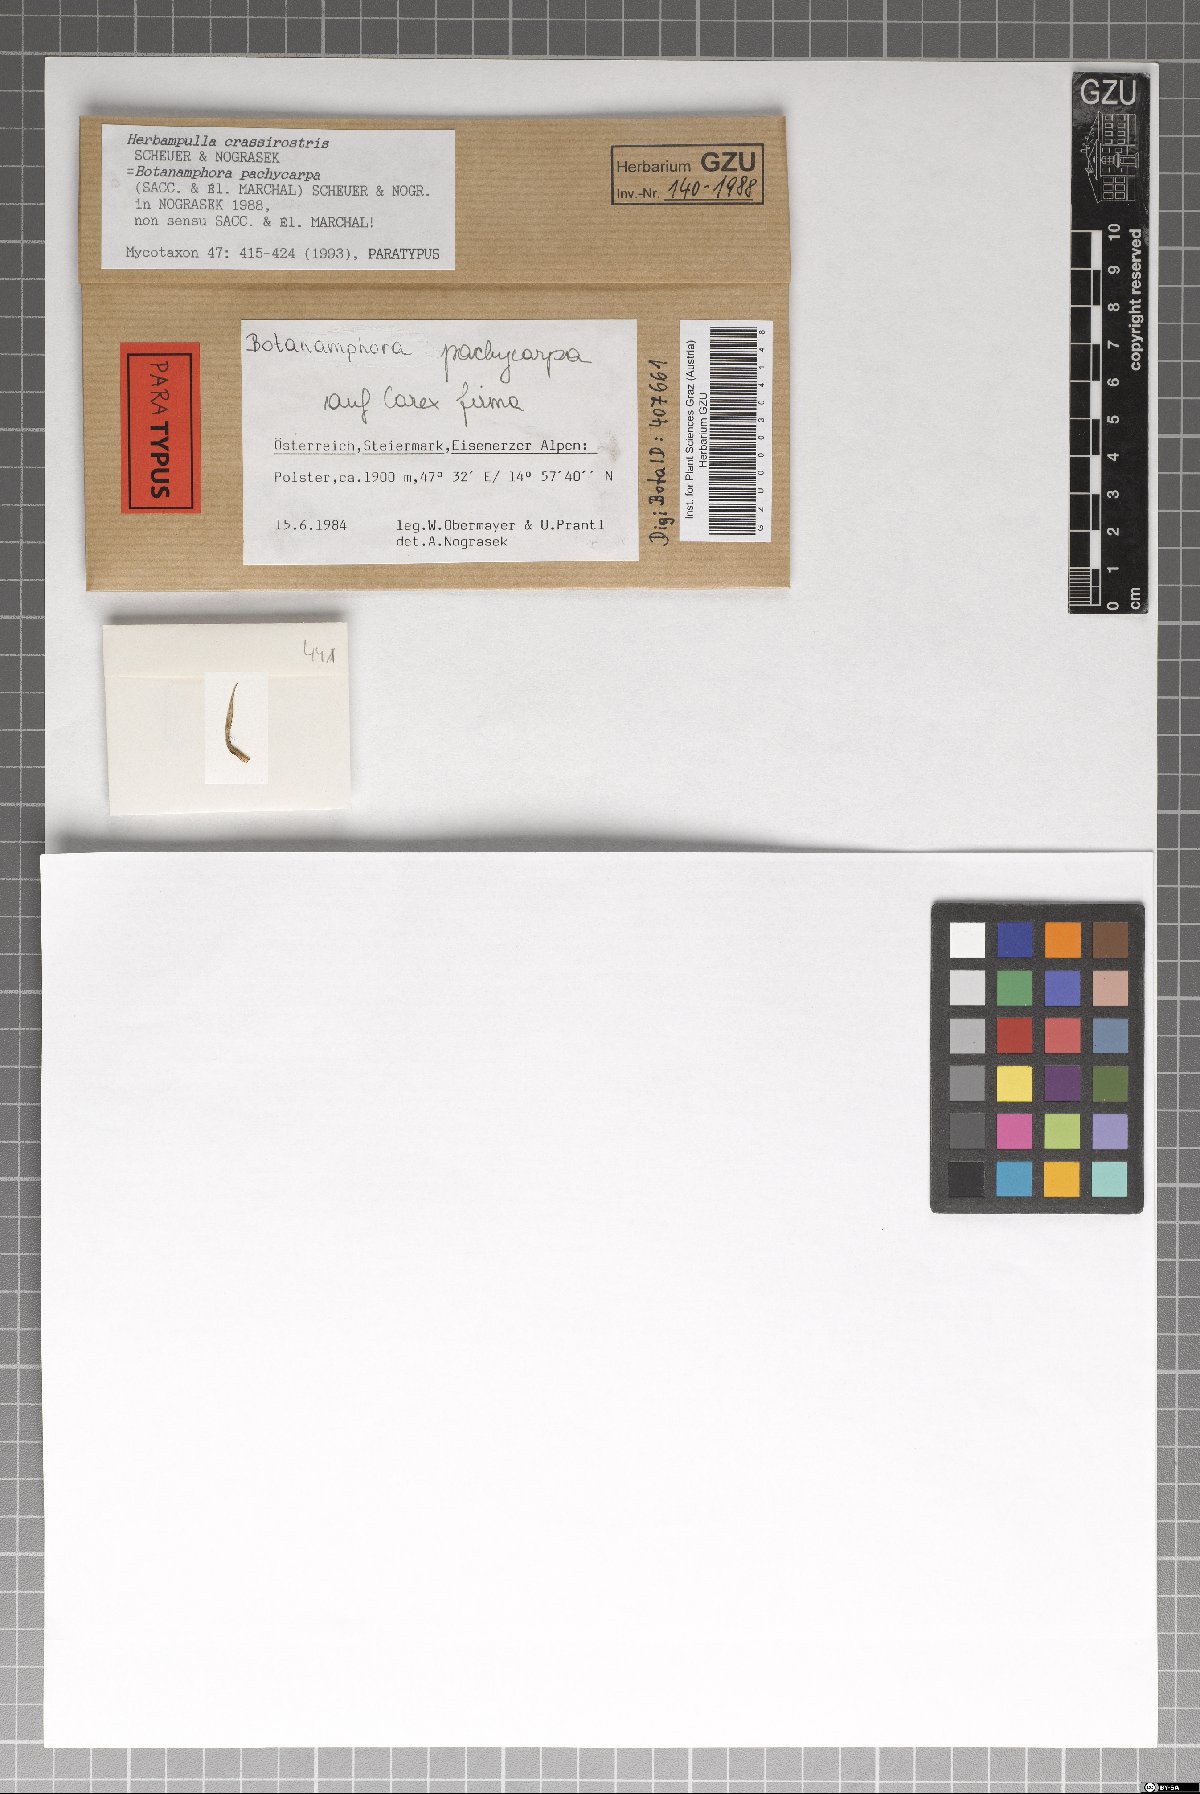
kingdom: Fungi
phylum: Ascomycota
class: Sordariomycetes
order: Magnaporthales
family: Magnaporthaceae
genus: Herbampulla
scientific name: Herbampulla crassirostris
